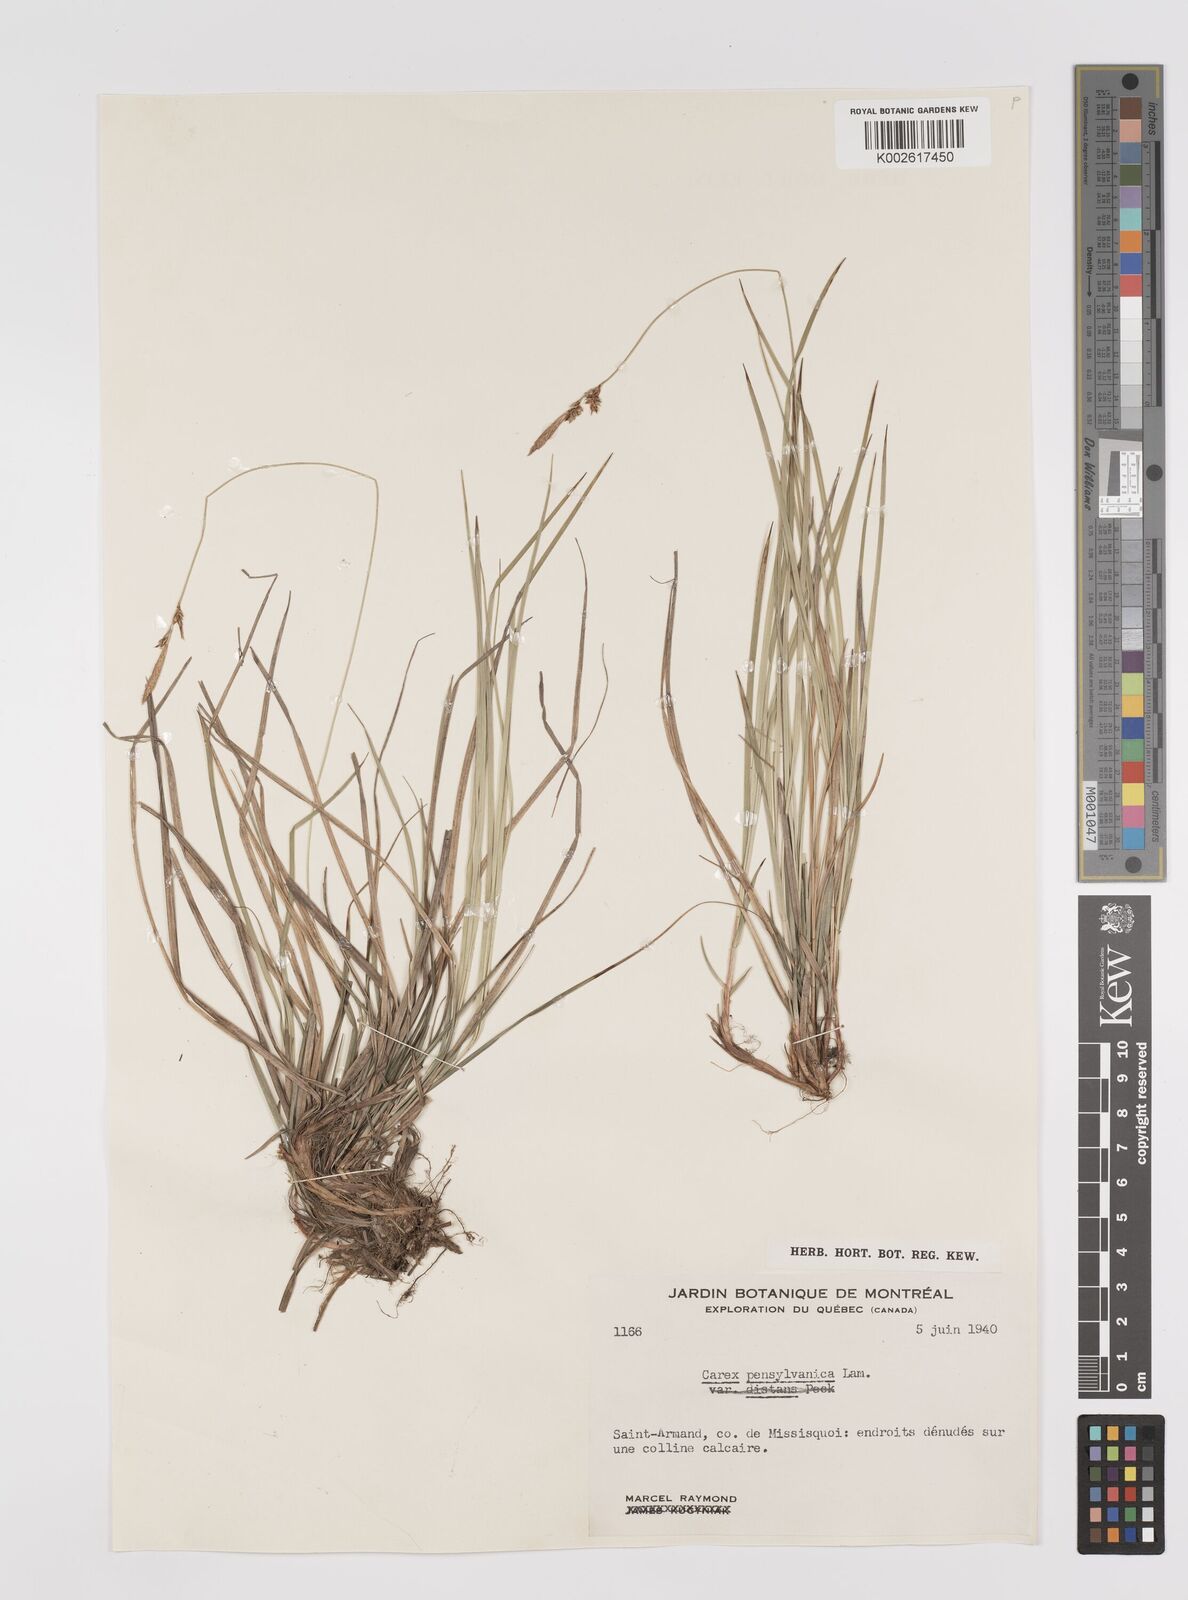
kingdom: Plantae
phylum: Tracheophyta
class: Liliopsida
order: Poales
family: Cyperaceae
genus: Carex
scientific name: Carex pensylvanica
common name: Common oak sedge
